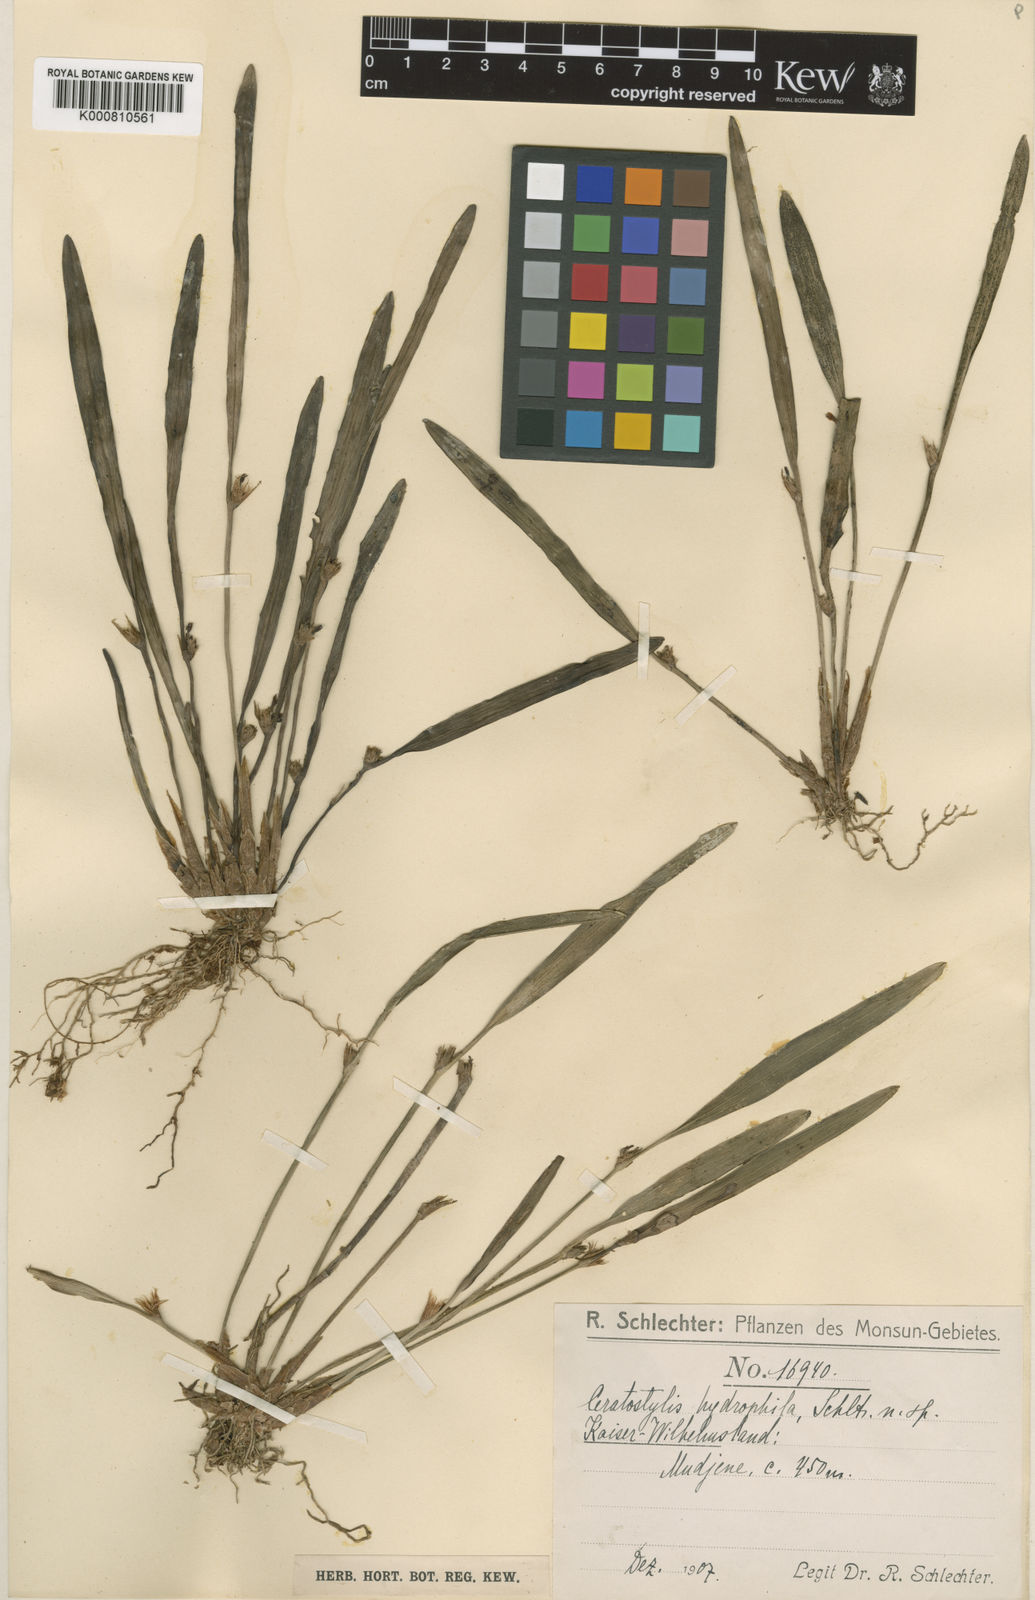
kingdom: Plantae
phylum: Tracheophyta
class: Liliopsida
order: Asparagales
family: Orchidaceae
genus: Ceratostylis
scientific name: Ceratostylis hydrophila
